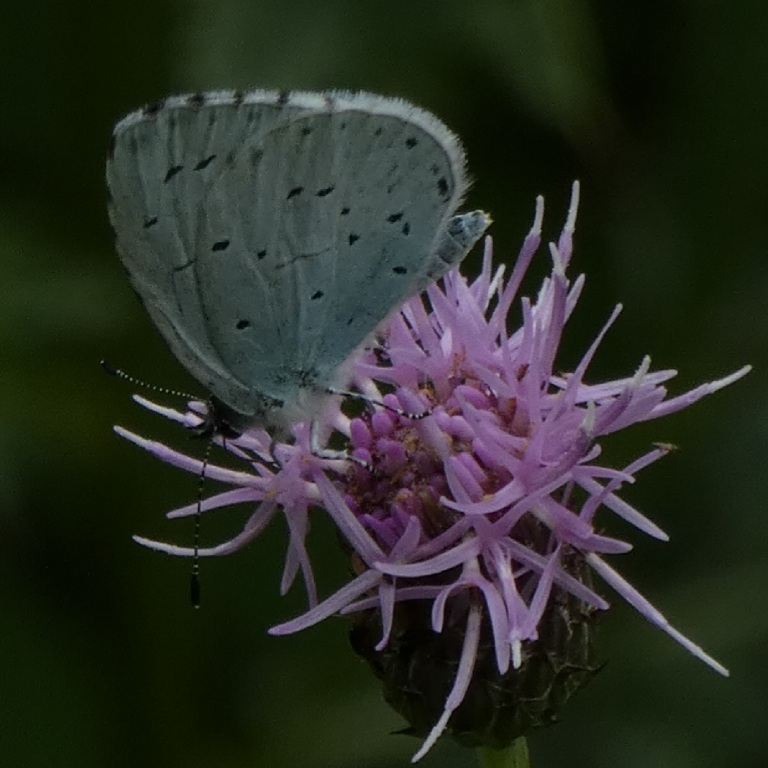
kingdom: Animalia
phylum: Arthropoda
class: Insecta
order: Lepidoptera
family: Lycaenidae
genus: Celastrina
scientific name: Celastrina argiolus
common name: Skovblåfugl
